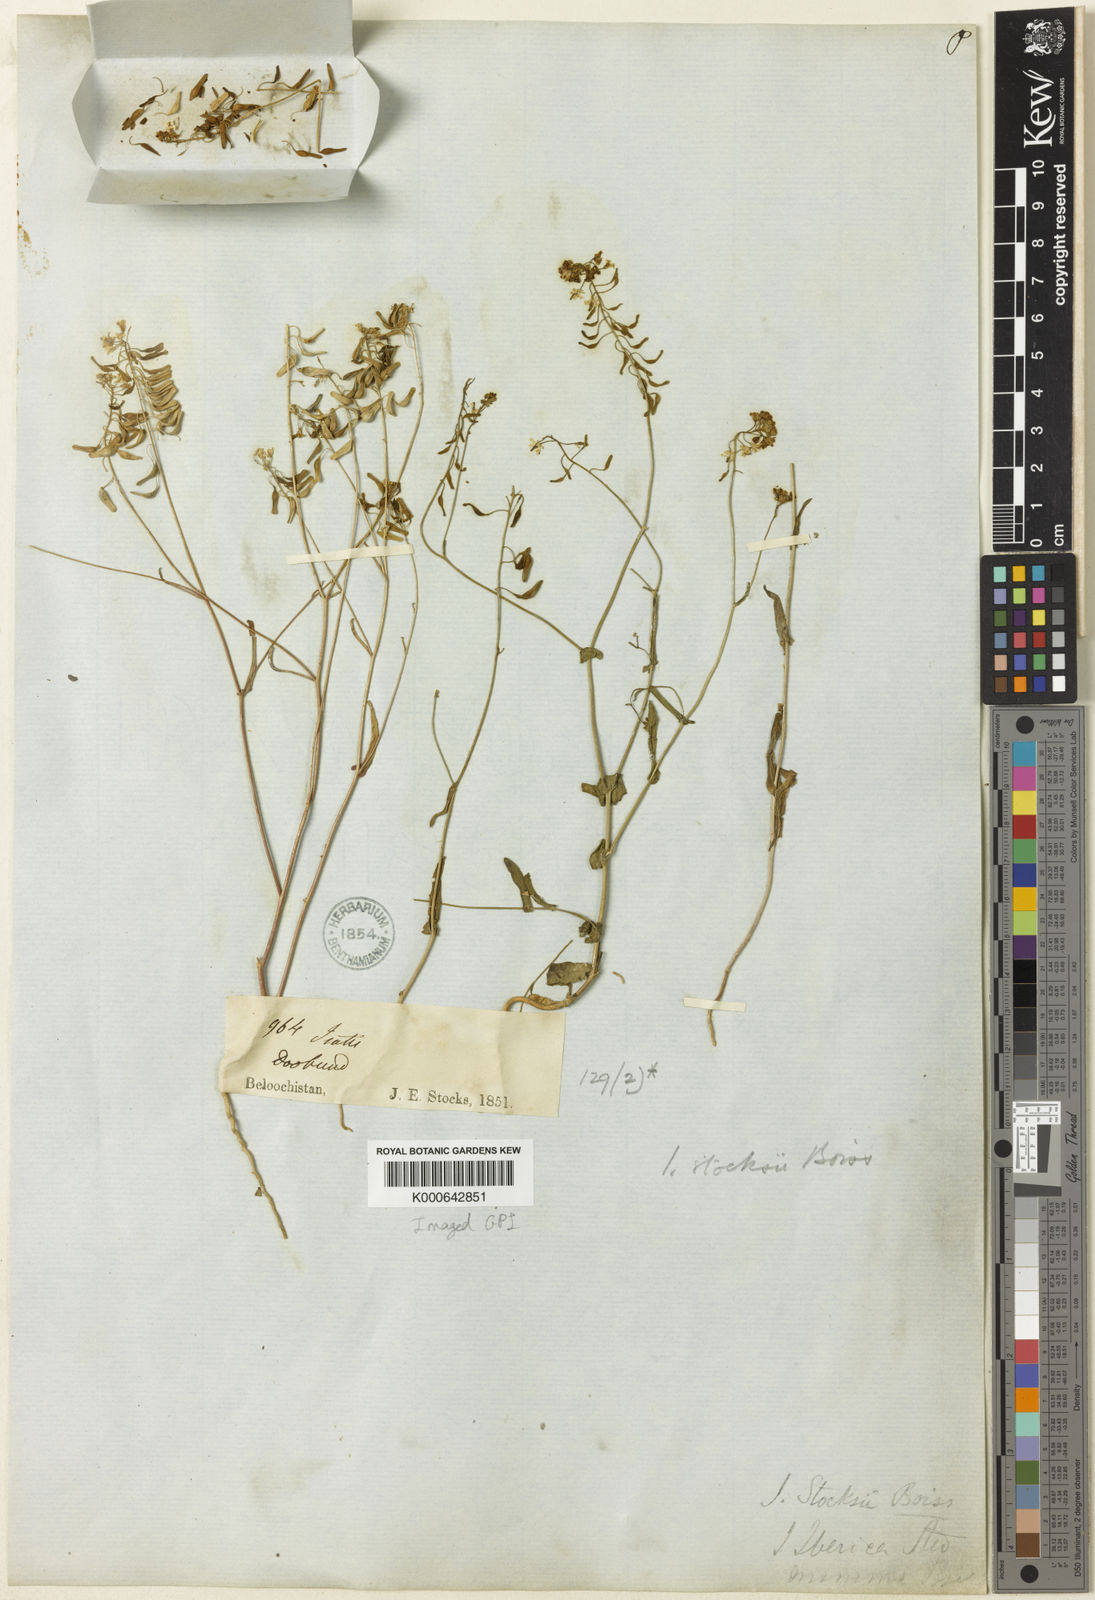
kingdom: Plantae
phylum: Tracheophyta
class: Magnoliopsida
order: Brassicales
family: Brassicaceae
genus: Isatis
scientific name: Isatis stocksii
